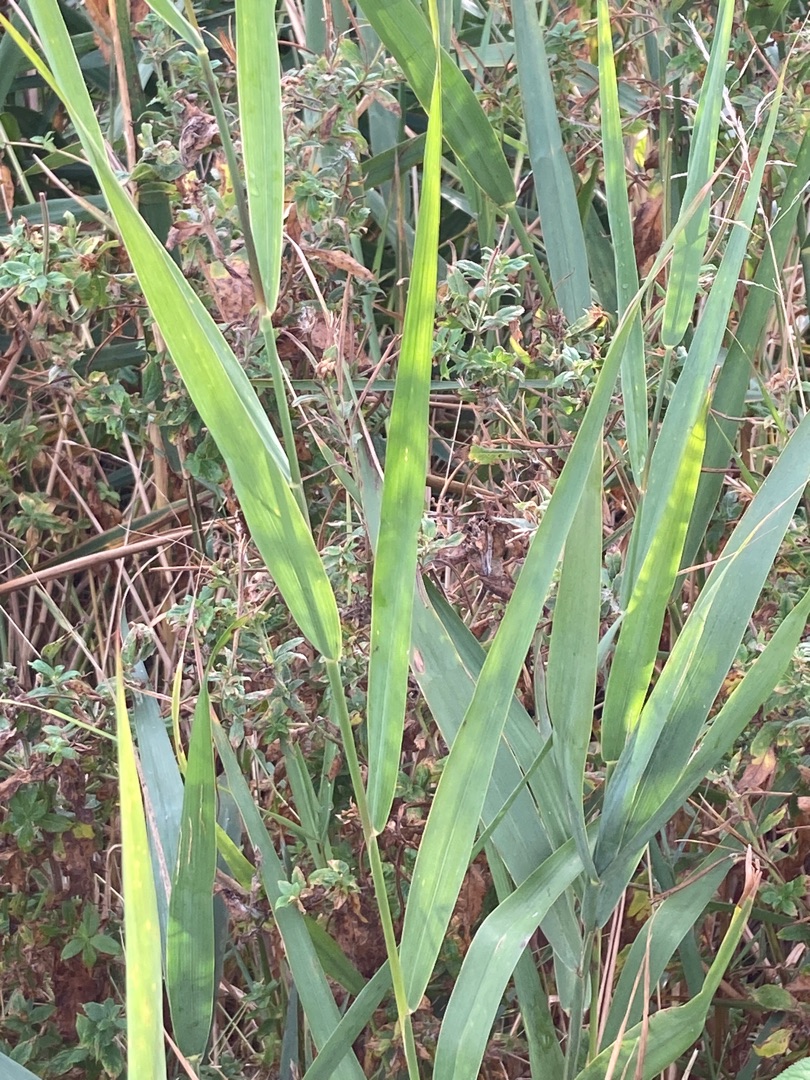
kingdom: Plantae
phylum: Tracheophyta
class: Liliopsida
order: Poales
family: Poaceae
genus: Phragmites
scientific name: Phragmites australis
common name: Tagrør
